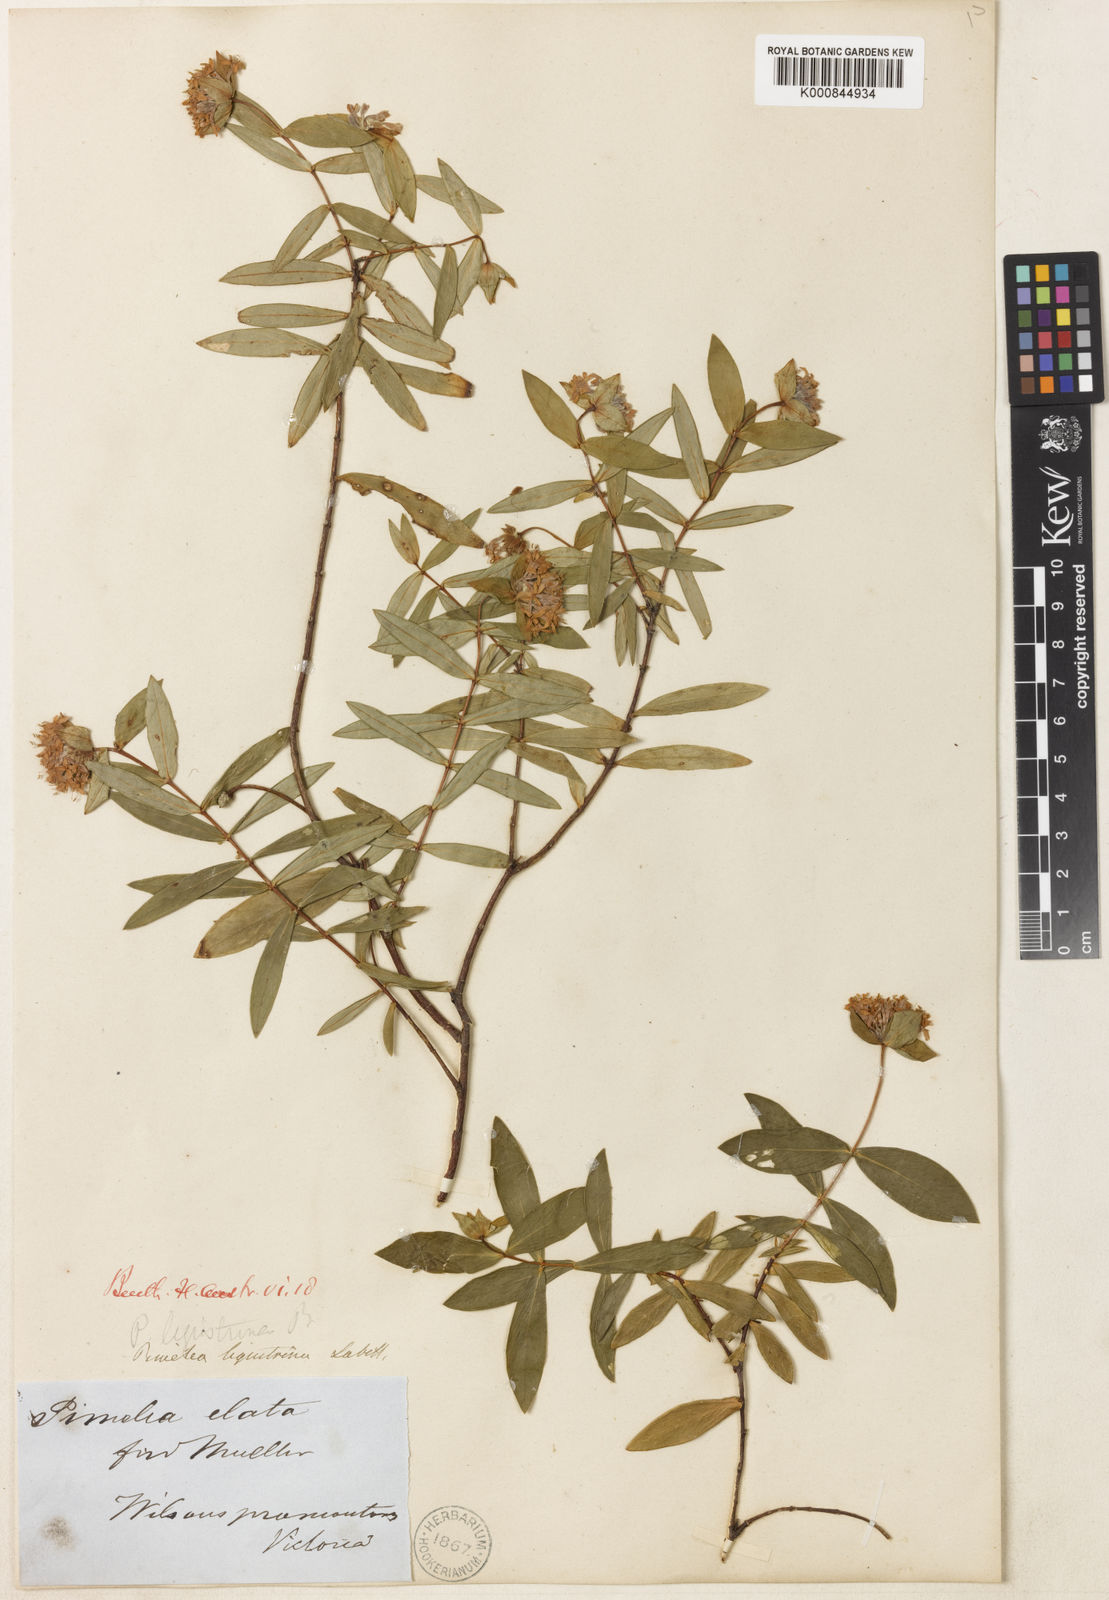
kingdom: Plantae
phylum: Tracheophyta
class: Magnoliopsida
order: Malvales
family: Thymelaeaceae
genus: Pimelea
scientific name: Pimelea ligustrina
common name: Tall riceflower
